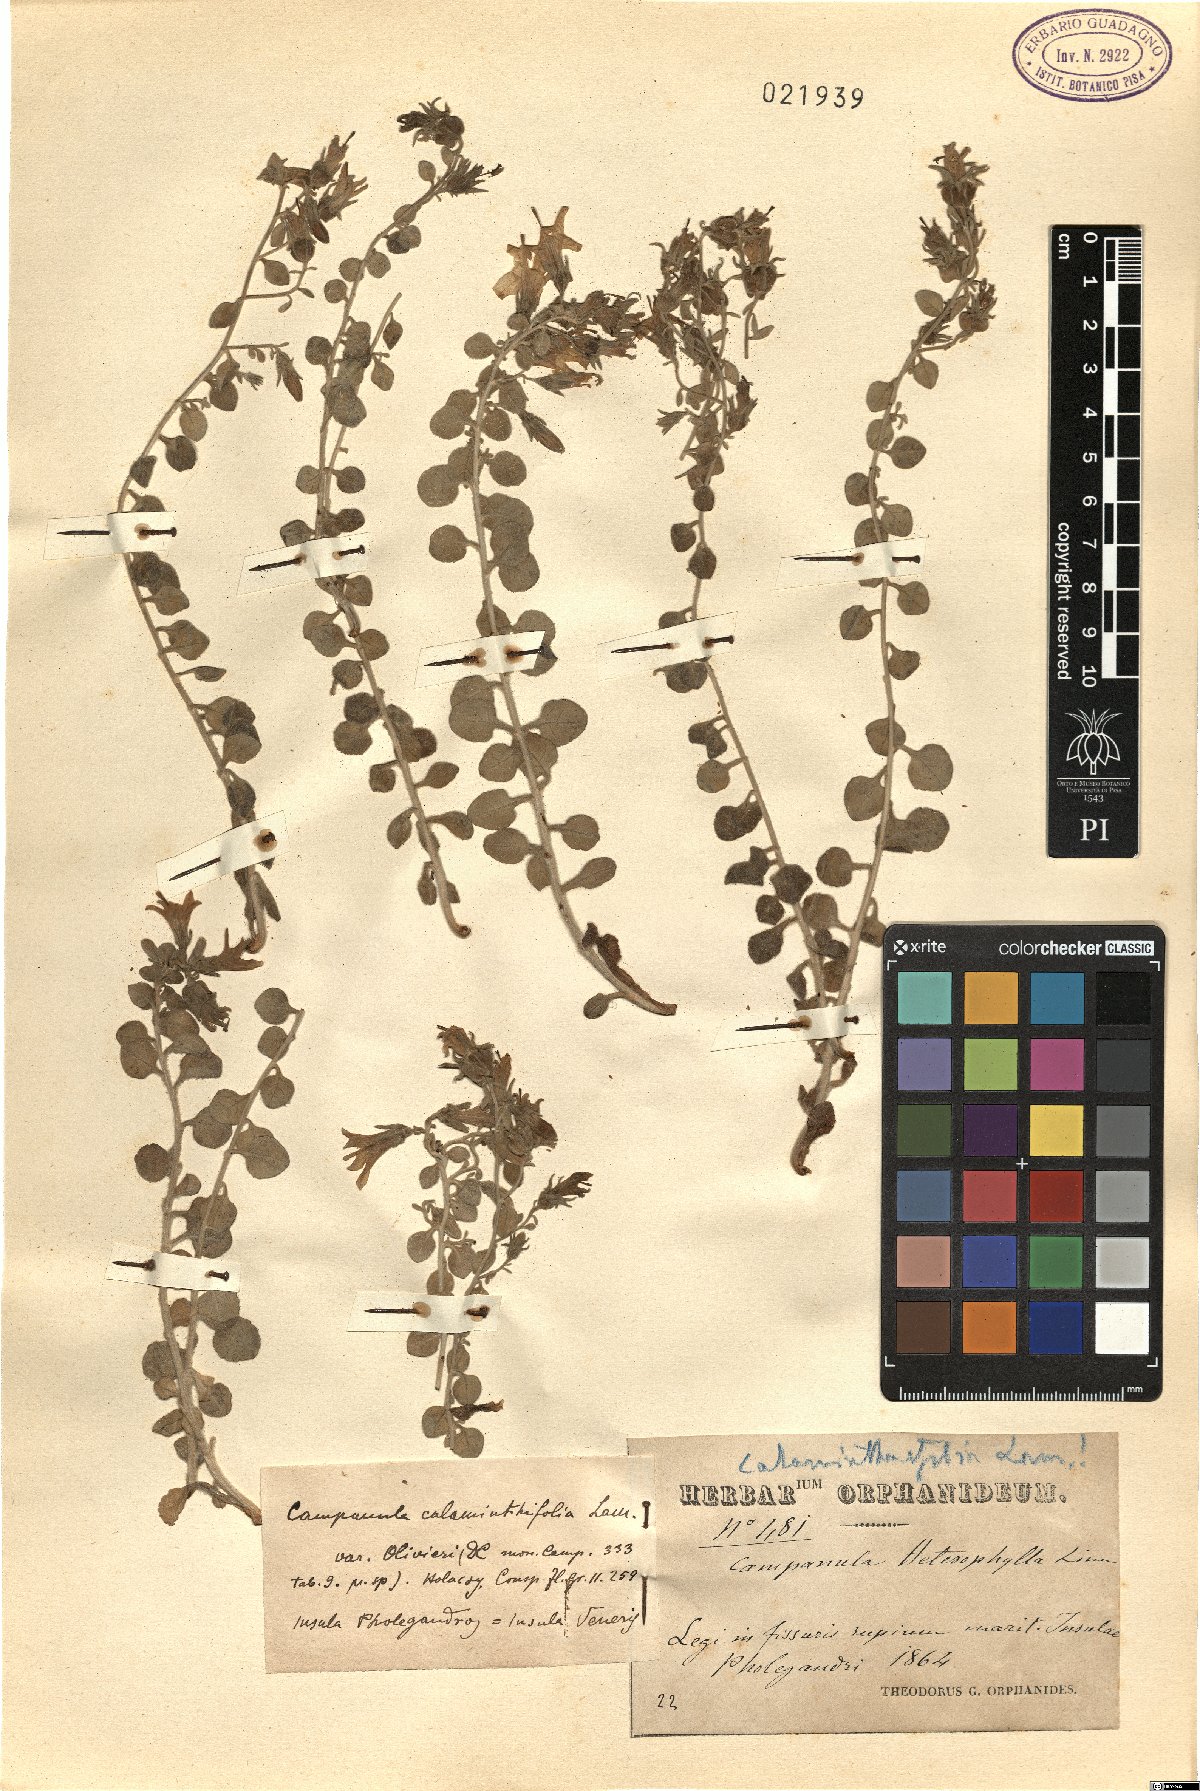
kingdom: Plantae
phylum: Tracheophyta
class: Magnoliopsida
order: Asterales
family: Campanulaceae
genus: Campanula
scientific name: Campanula heterophylla
